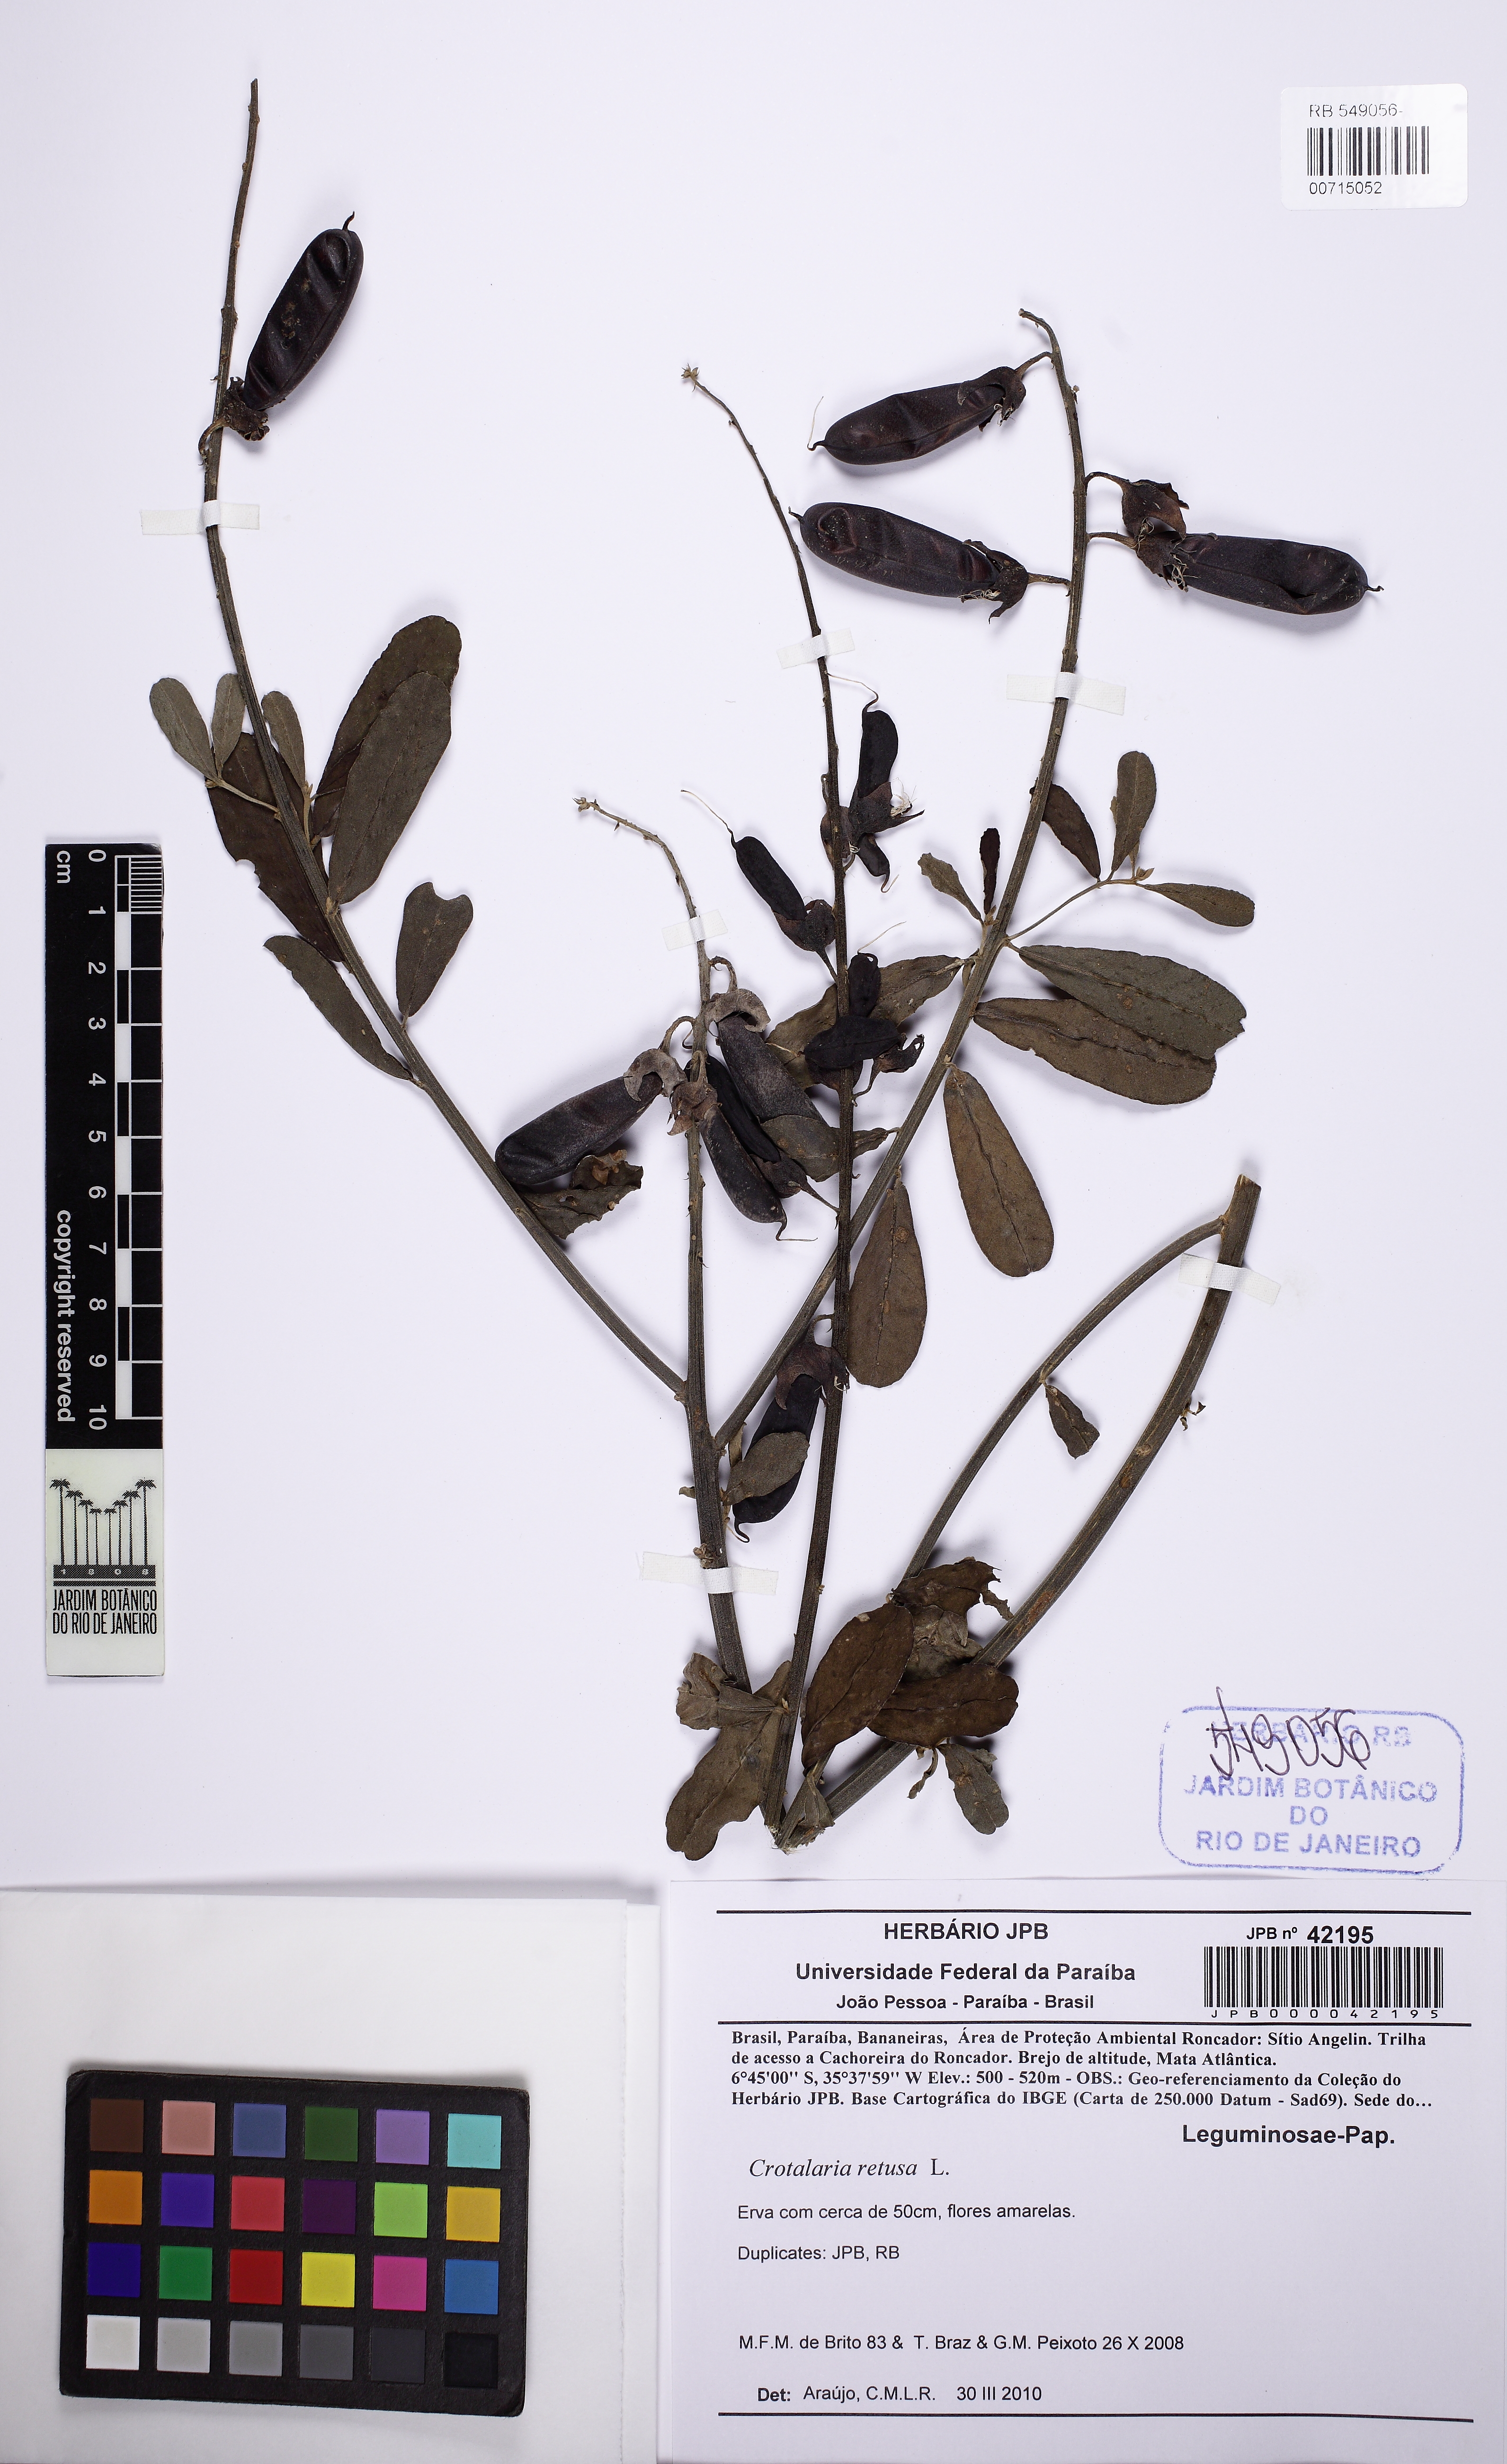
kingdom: Plantae
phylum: Tracheophyta
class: Magnoliopsida
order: Fabales
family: Fabaceae
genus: Crotalaria
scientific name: Crotalaria retusa
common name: Rattleweed
